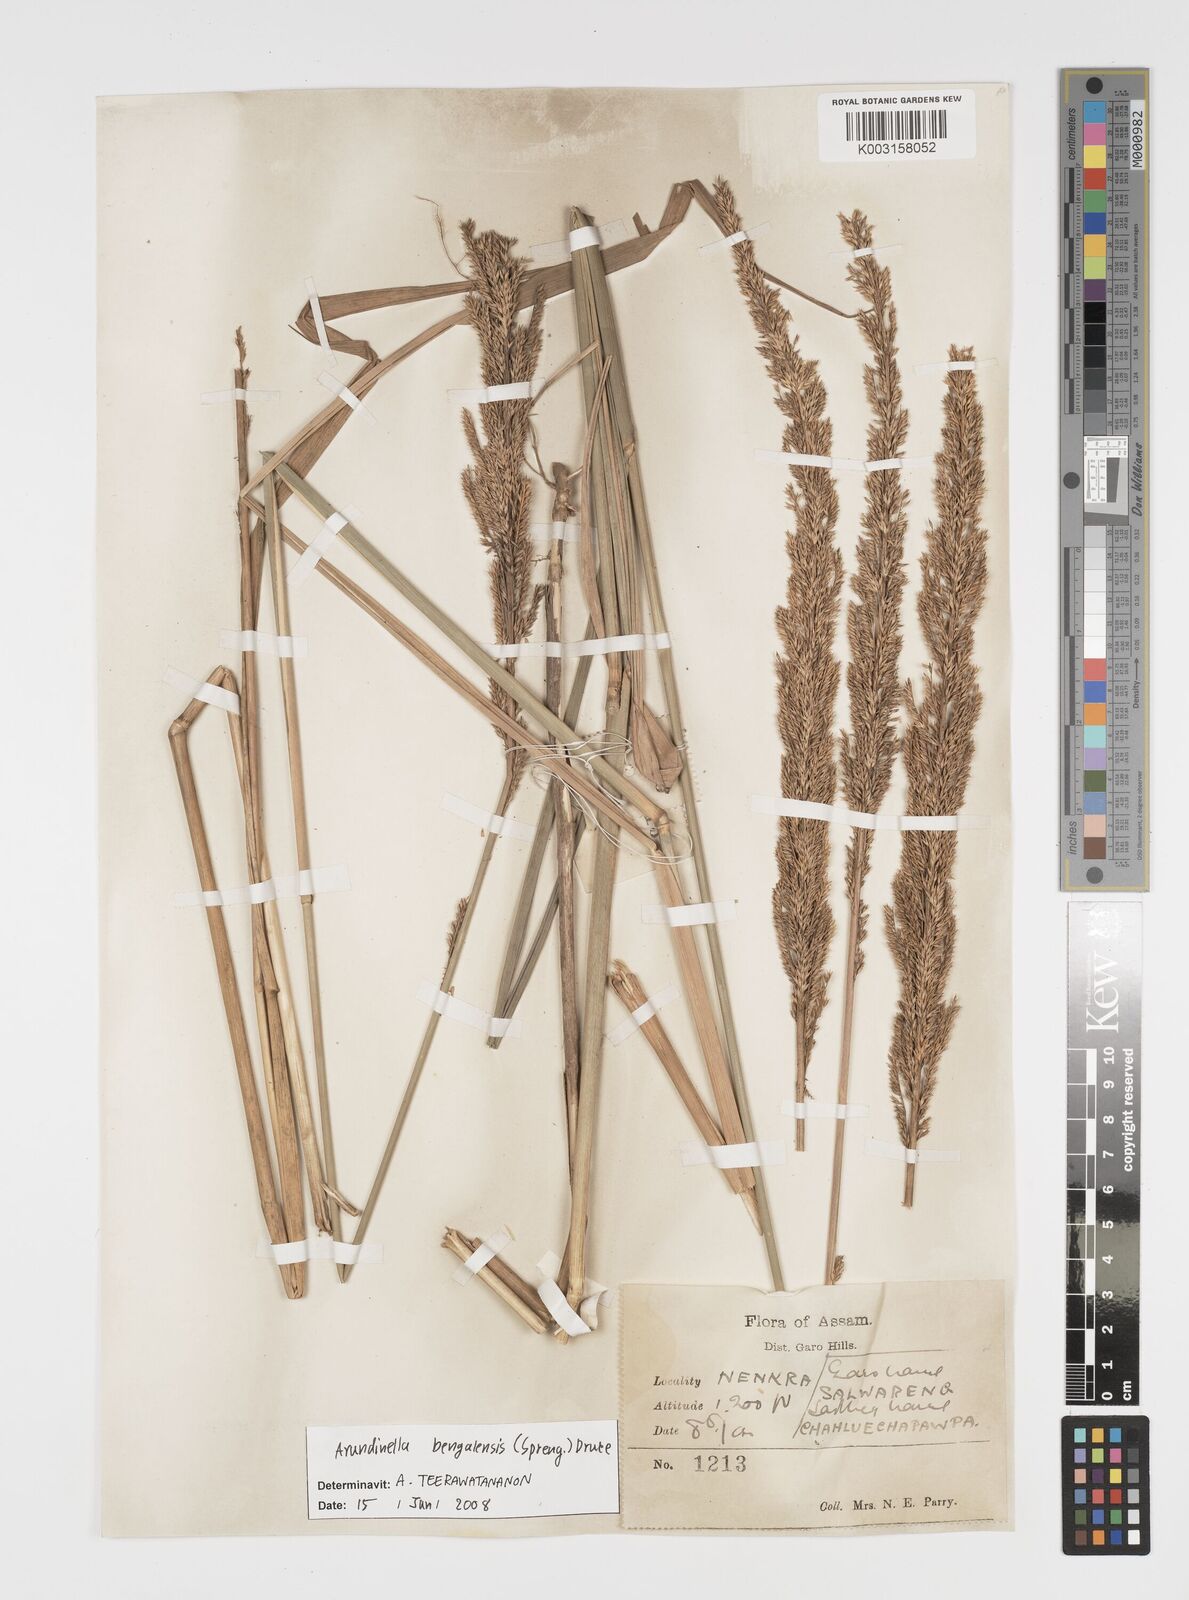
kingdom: Plantae
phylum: Tracheophyta
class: Liliopsida
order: Poales
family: Poaceae
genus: Arundinella
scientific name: Arundinella bengalensis
